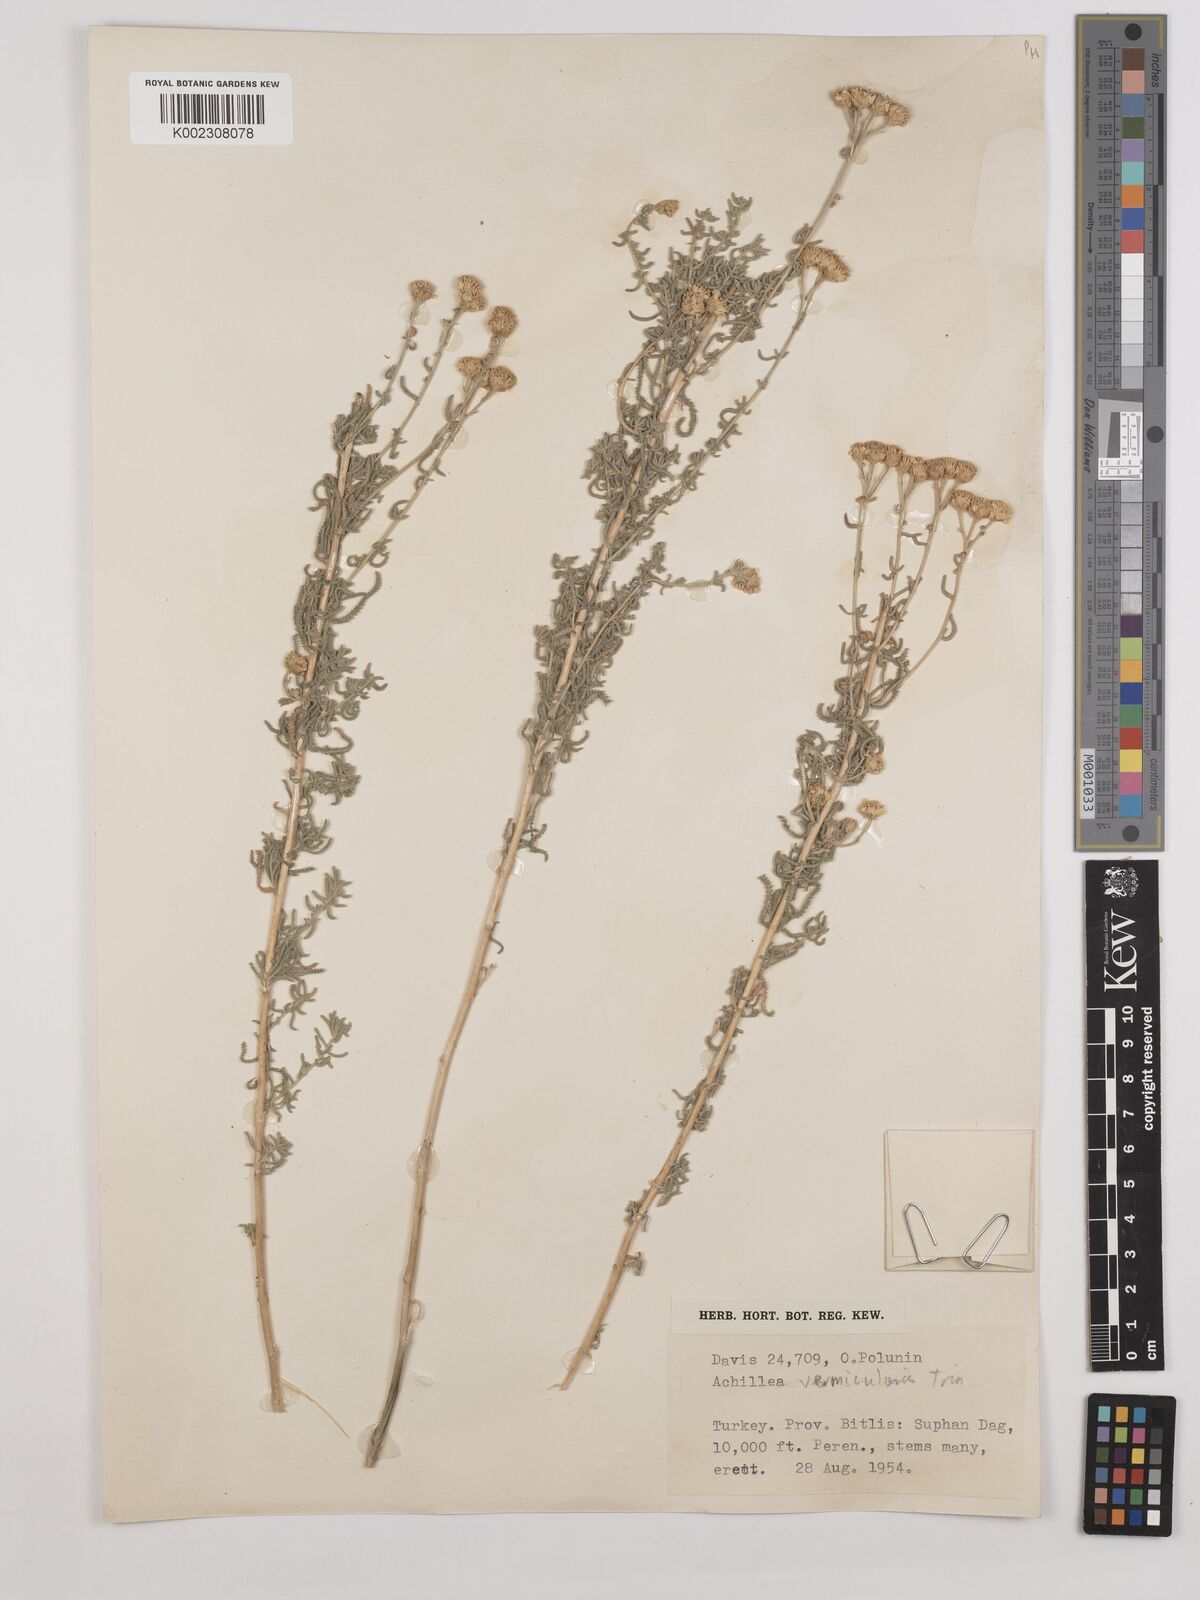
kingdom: Plantae
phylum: Tracheophyta
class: Magnoliopsida
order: Asterales
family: Asteraceae
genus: Achillea
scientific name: Achillea vermicularis
